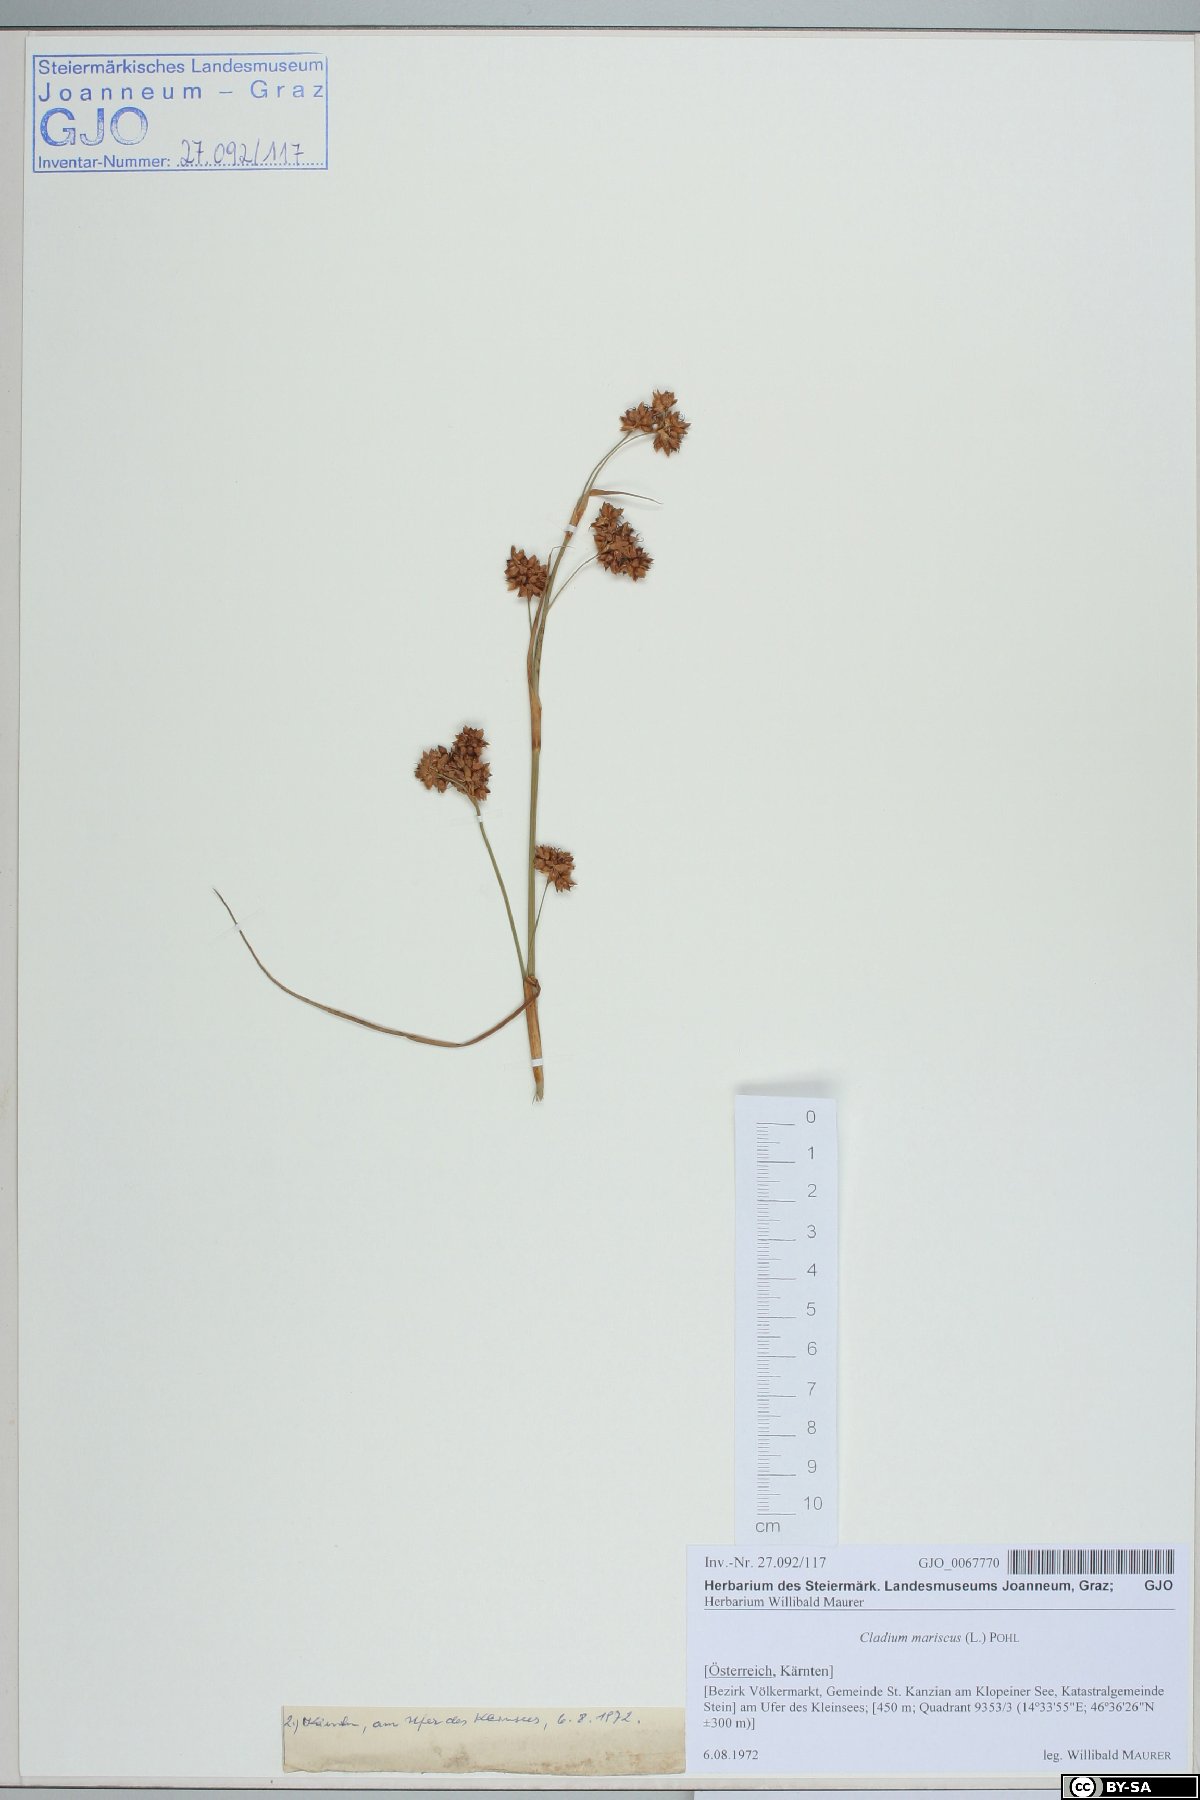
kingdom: Plantae
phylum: Tracheophyta
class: Liliopsida
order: Poales
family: Cyperaceae
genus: Cladium
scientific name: Cladium mariscus
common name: Great fen-sedge
